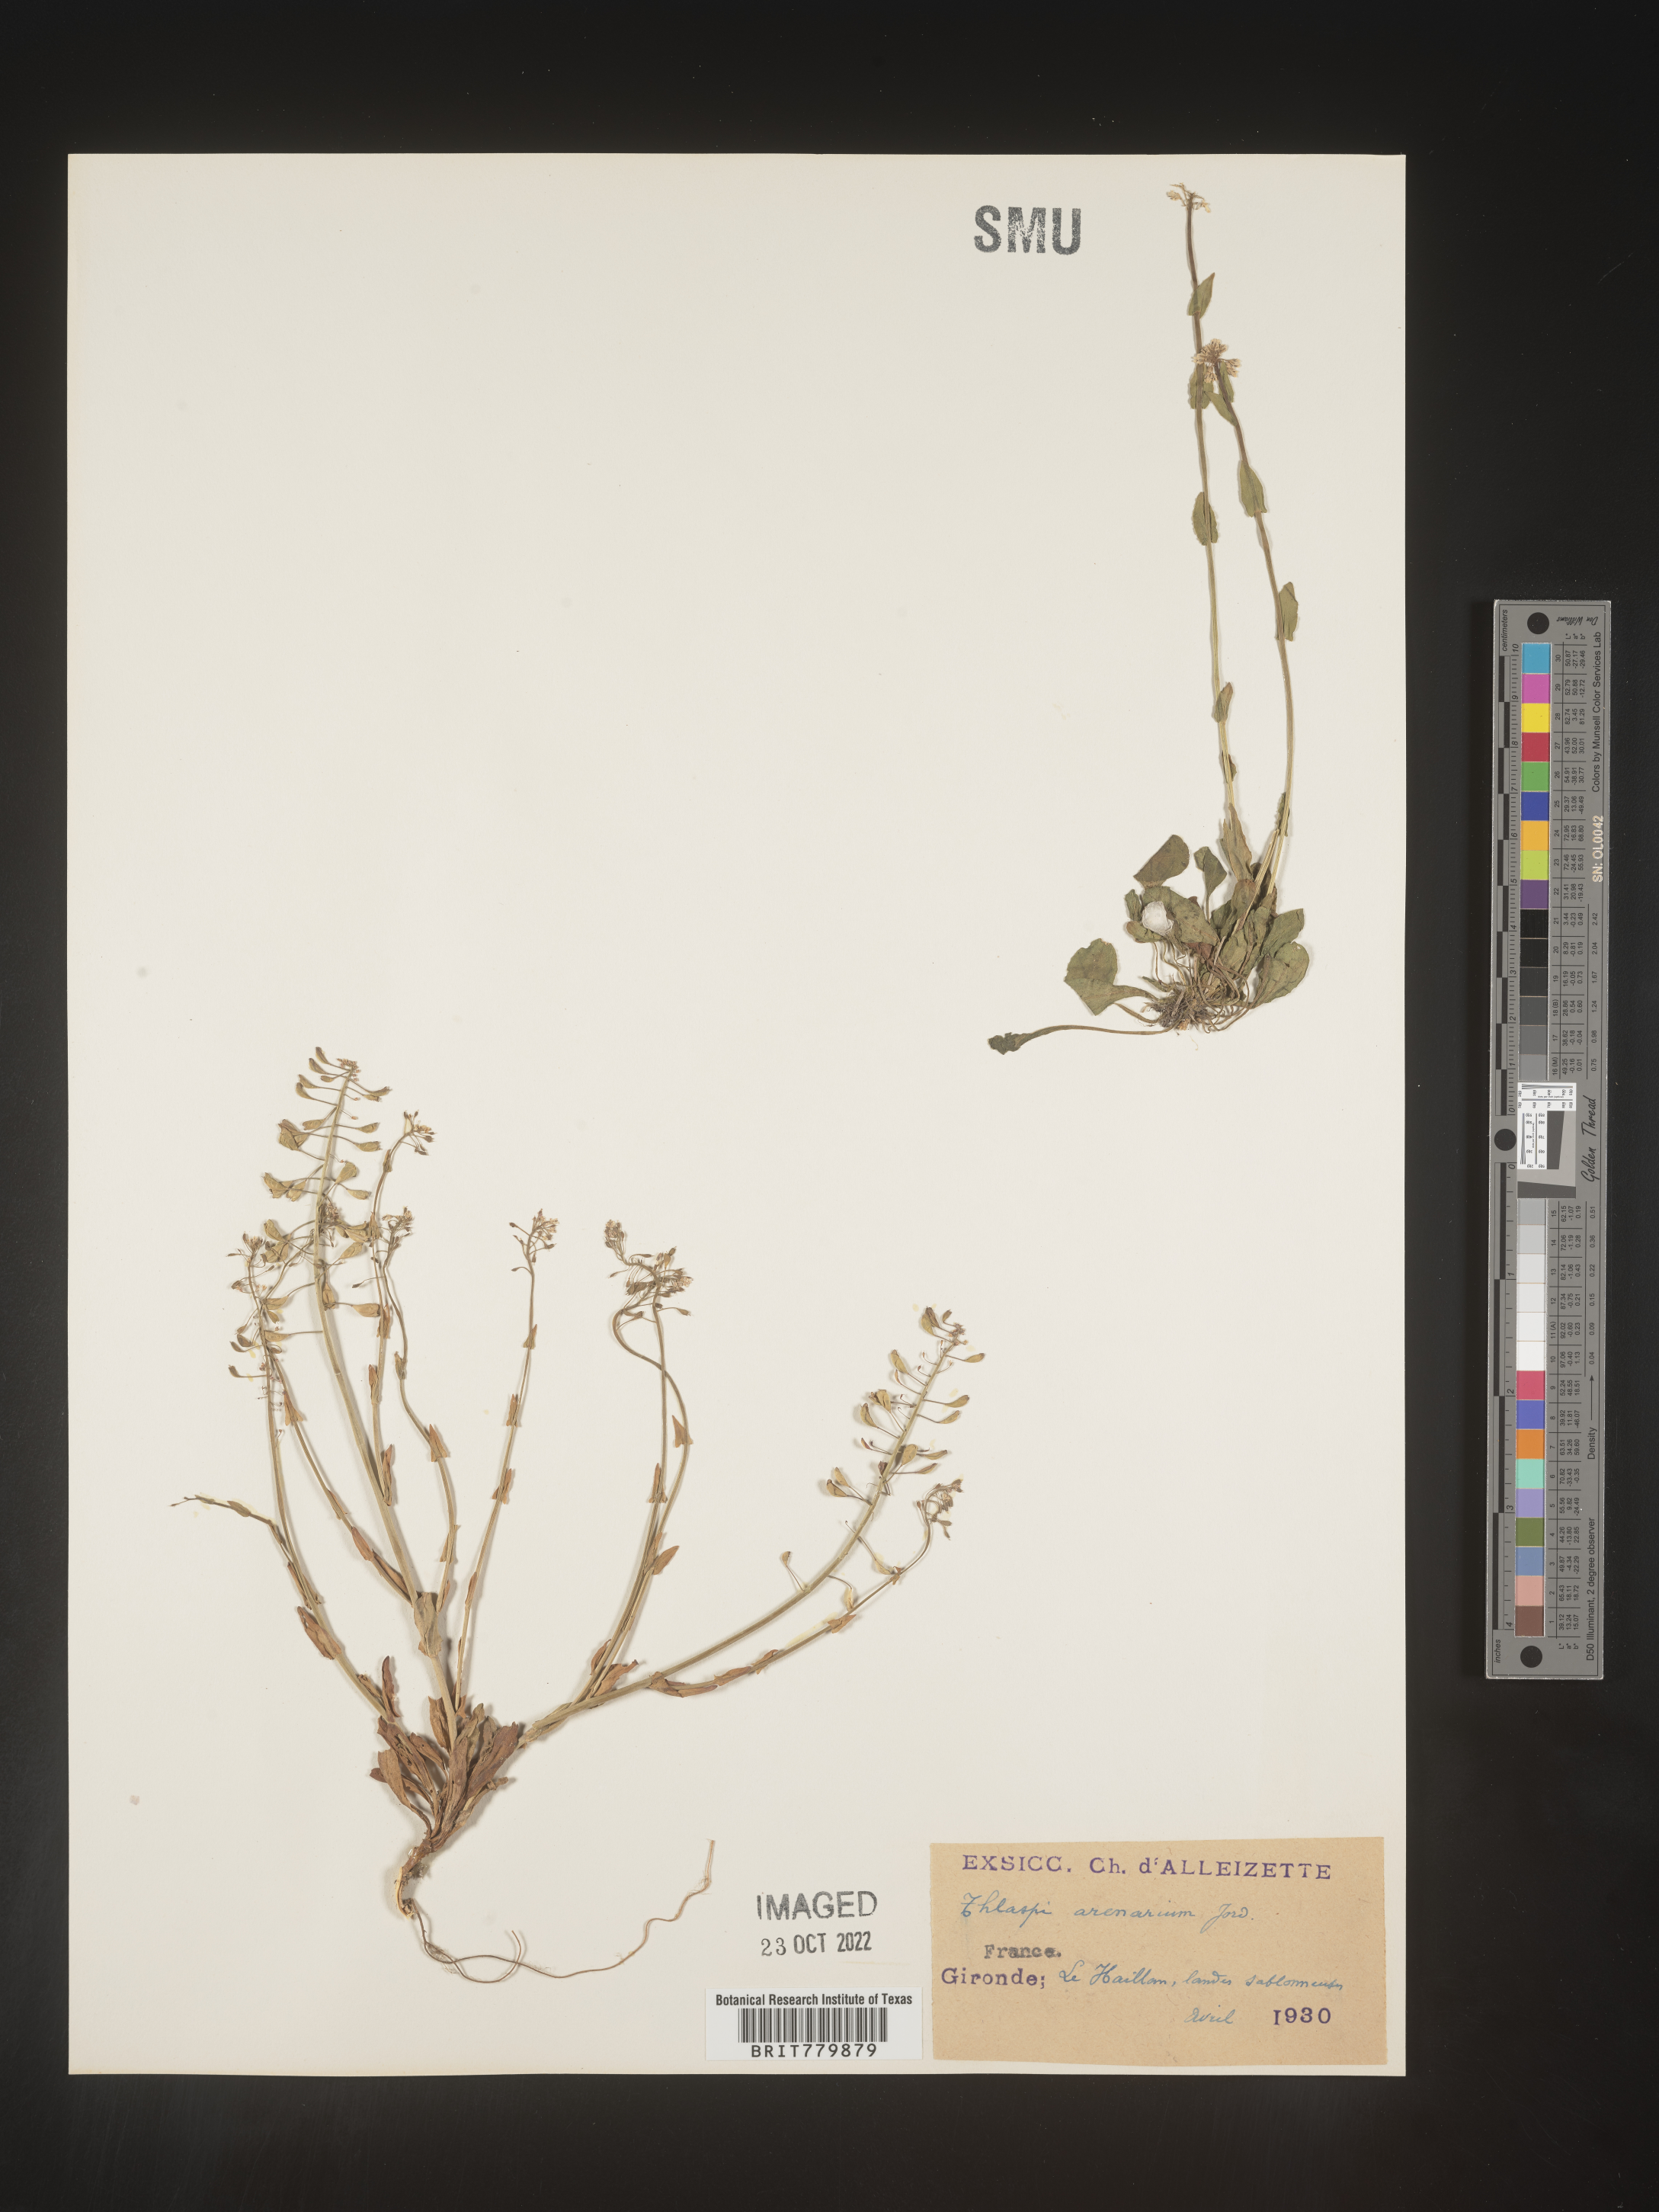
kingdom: Plantae
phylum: Tracheophyta
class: Magnoliopsida
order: Brassicales
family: Brassicaceae
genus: Thlaspi
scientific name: Thlaspi
